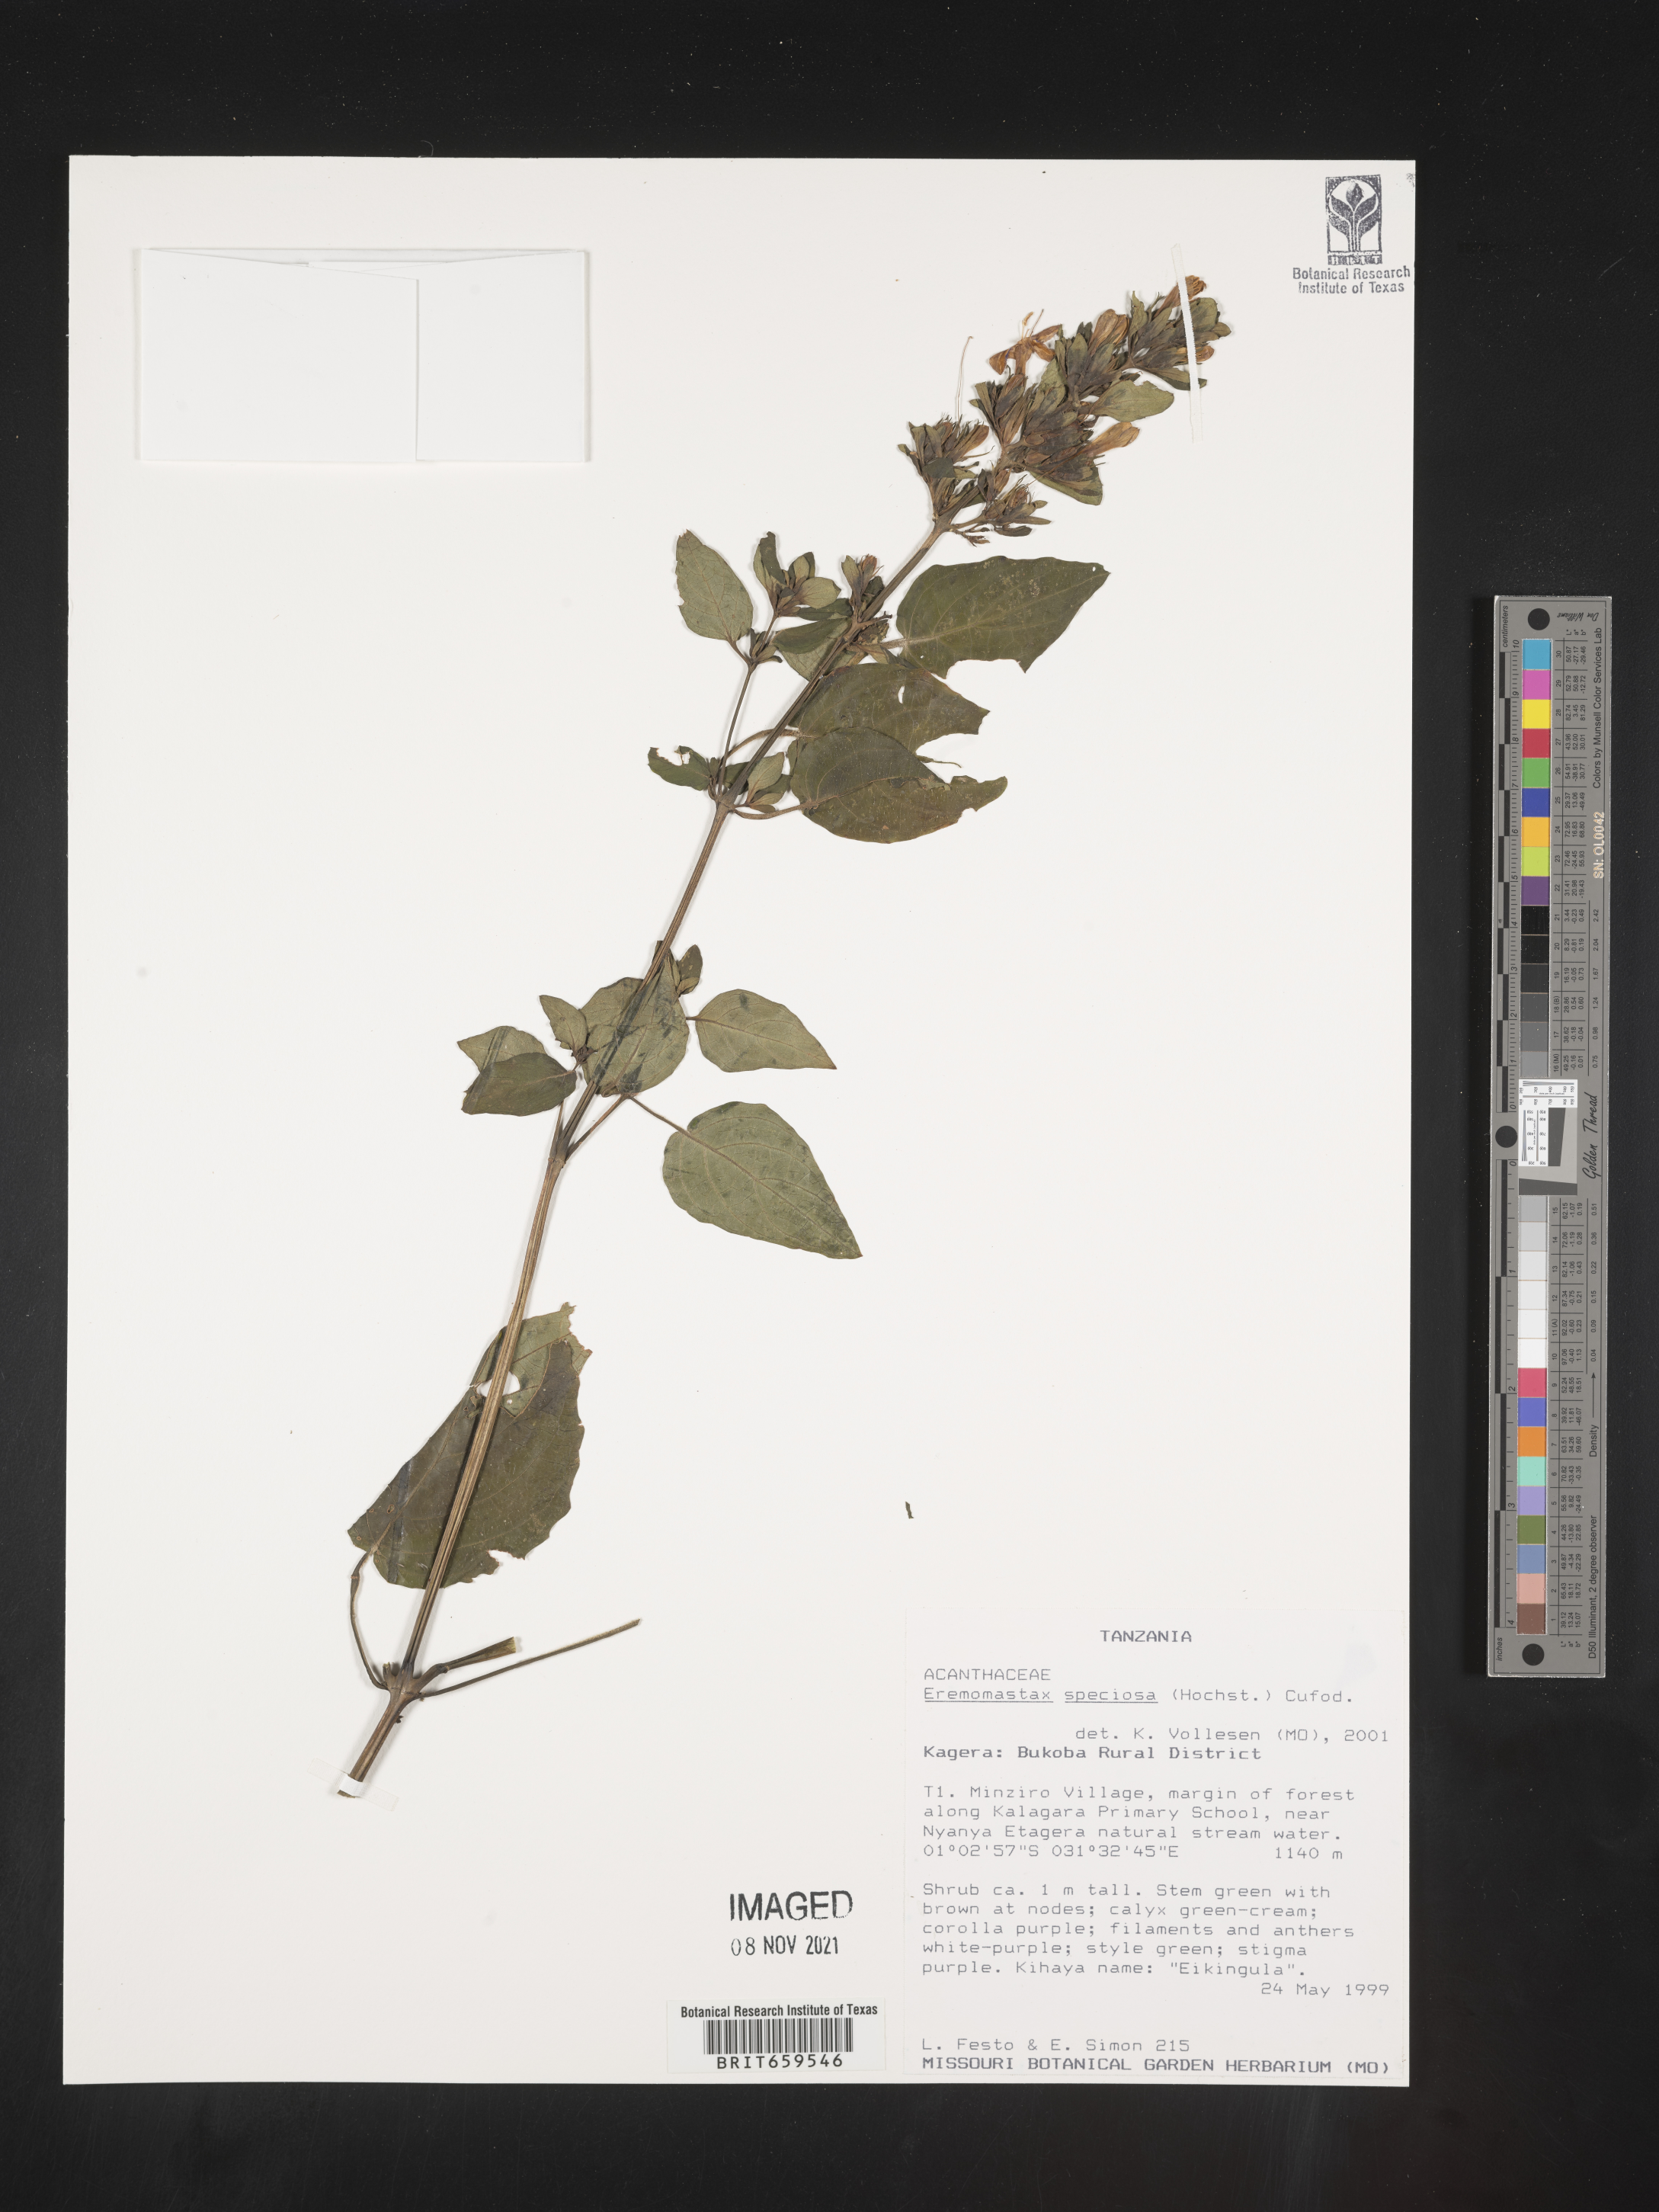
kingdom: Plantae
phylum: Tracheophyta
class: Magnoliopsida
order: Lamiales
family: Acanthaceae
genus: Eremomastax
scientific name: Eremomastax speciosa
